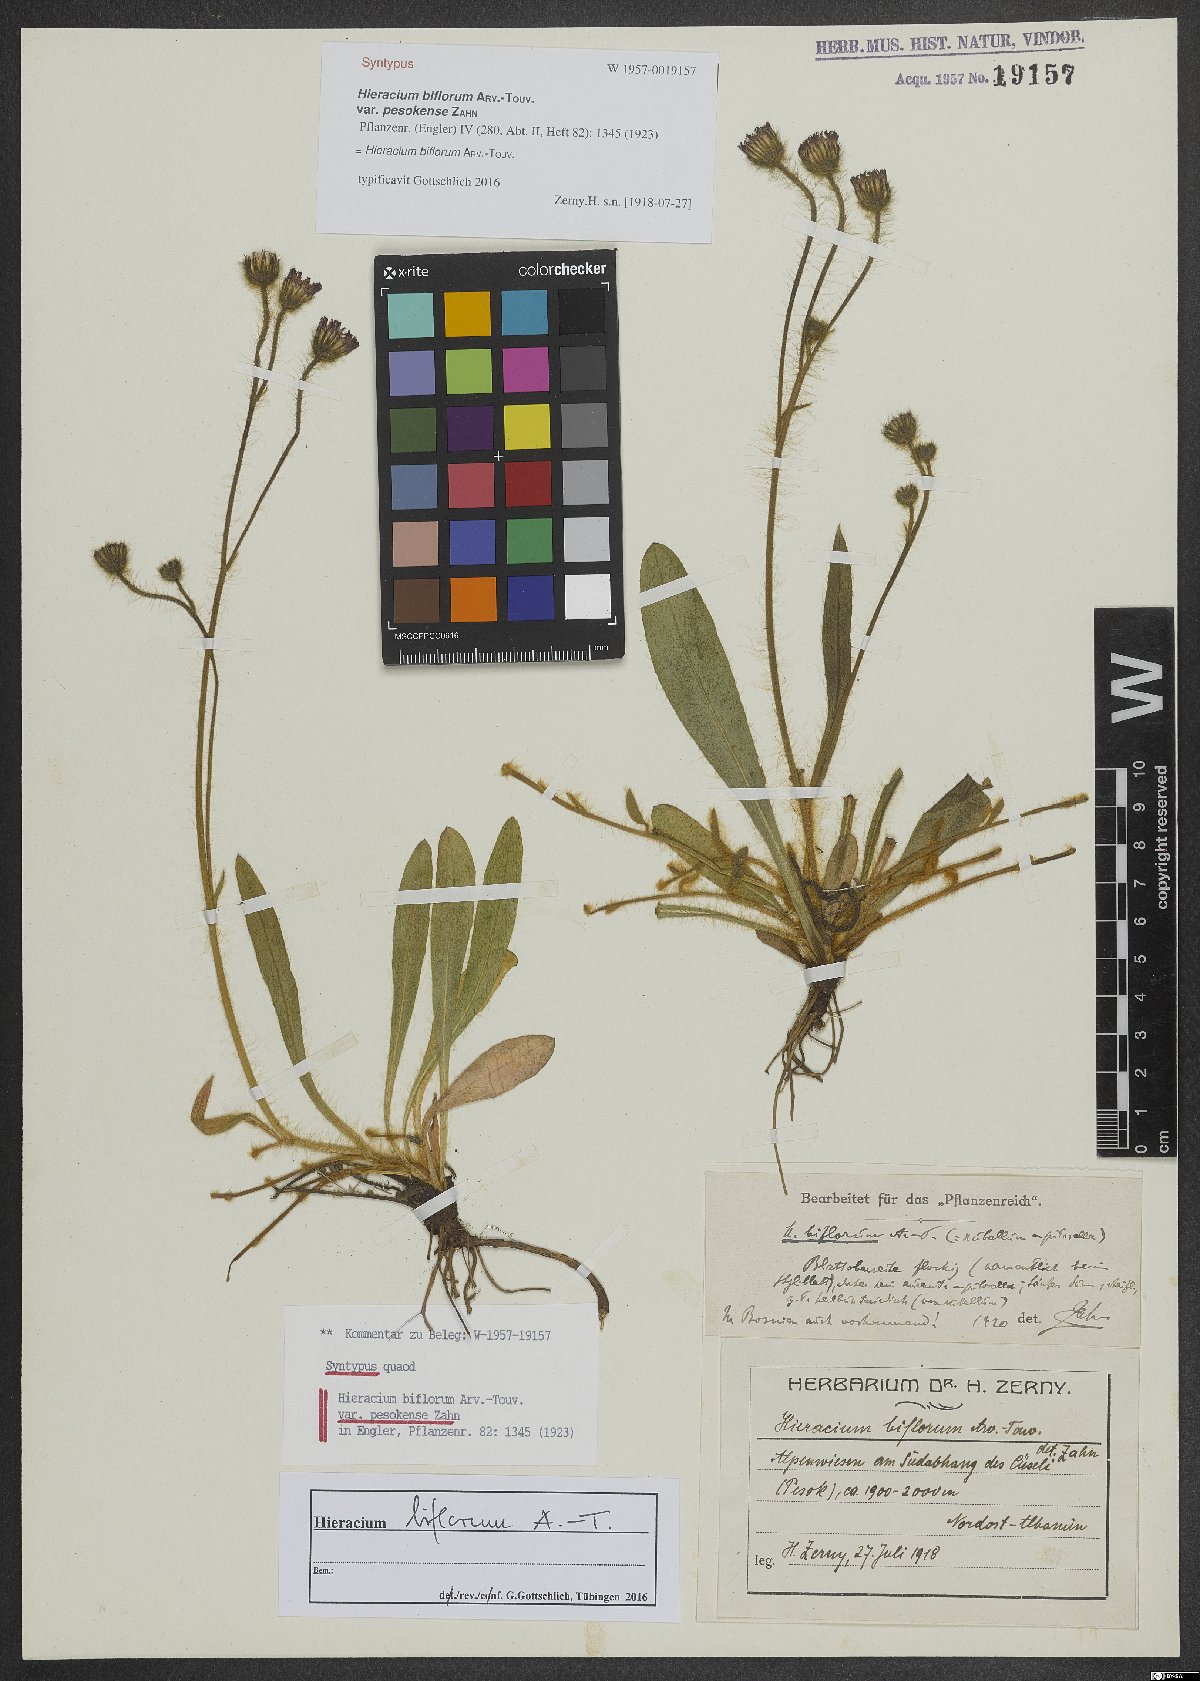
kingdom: Plantae
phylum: Tracheophyta
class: Magnoliopsida
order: Asterales
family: Asteraceae
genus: Pilosella
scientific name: Pilosella biflora
